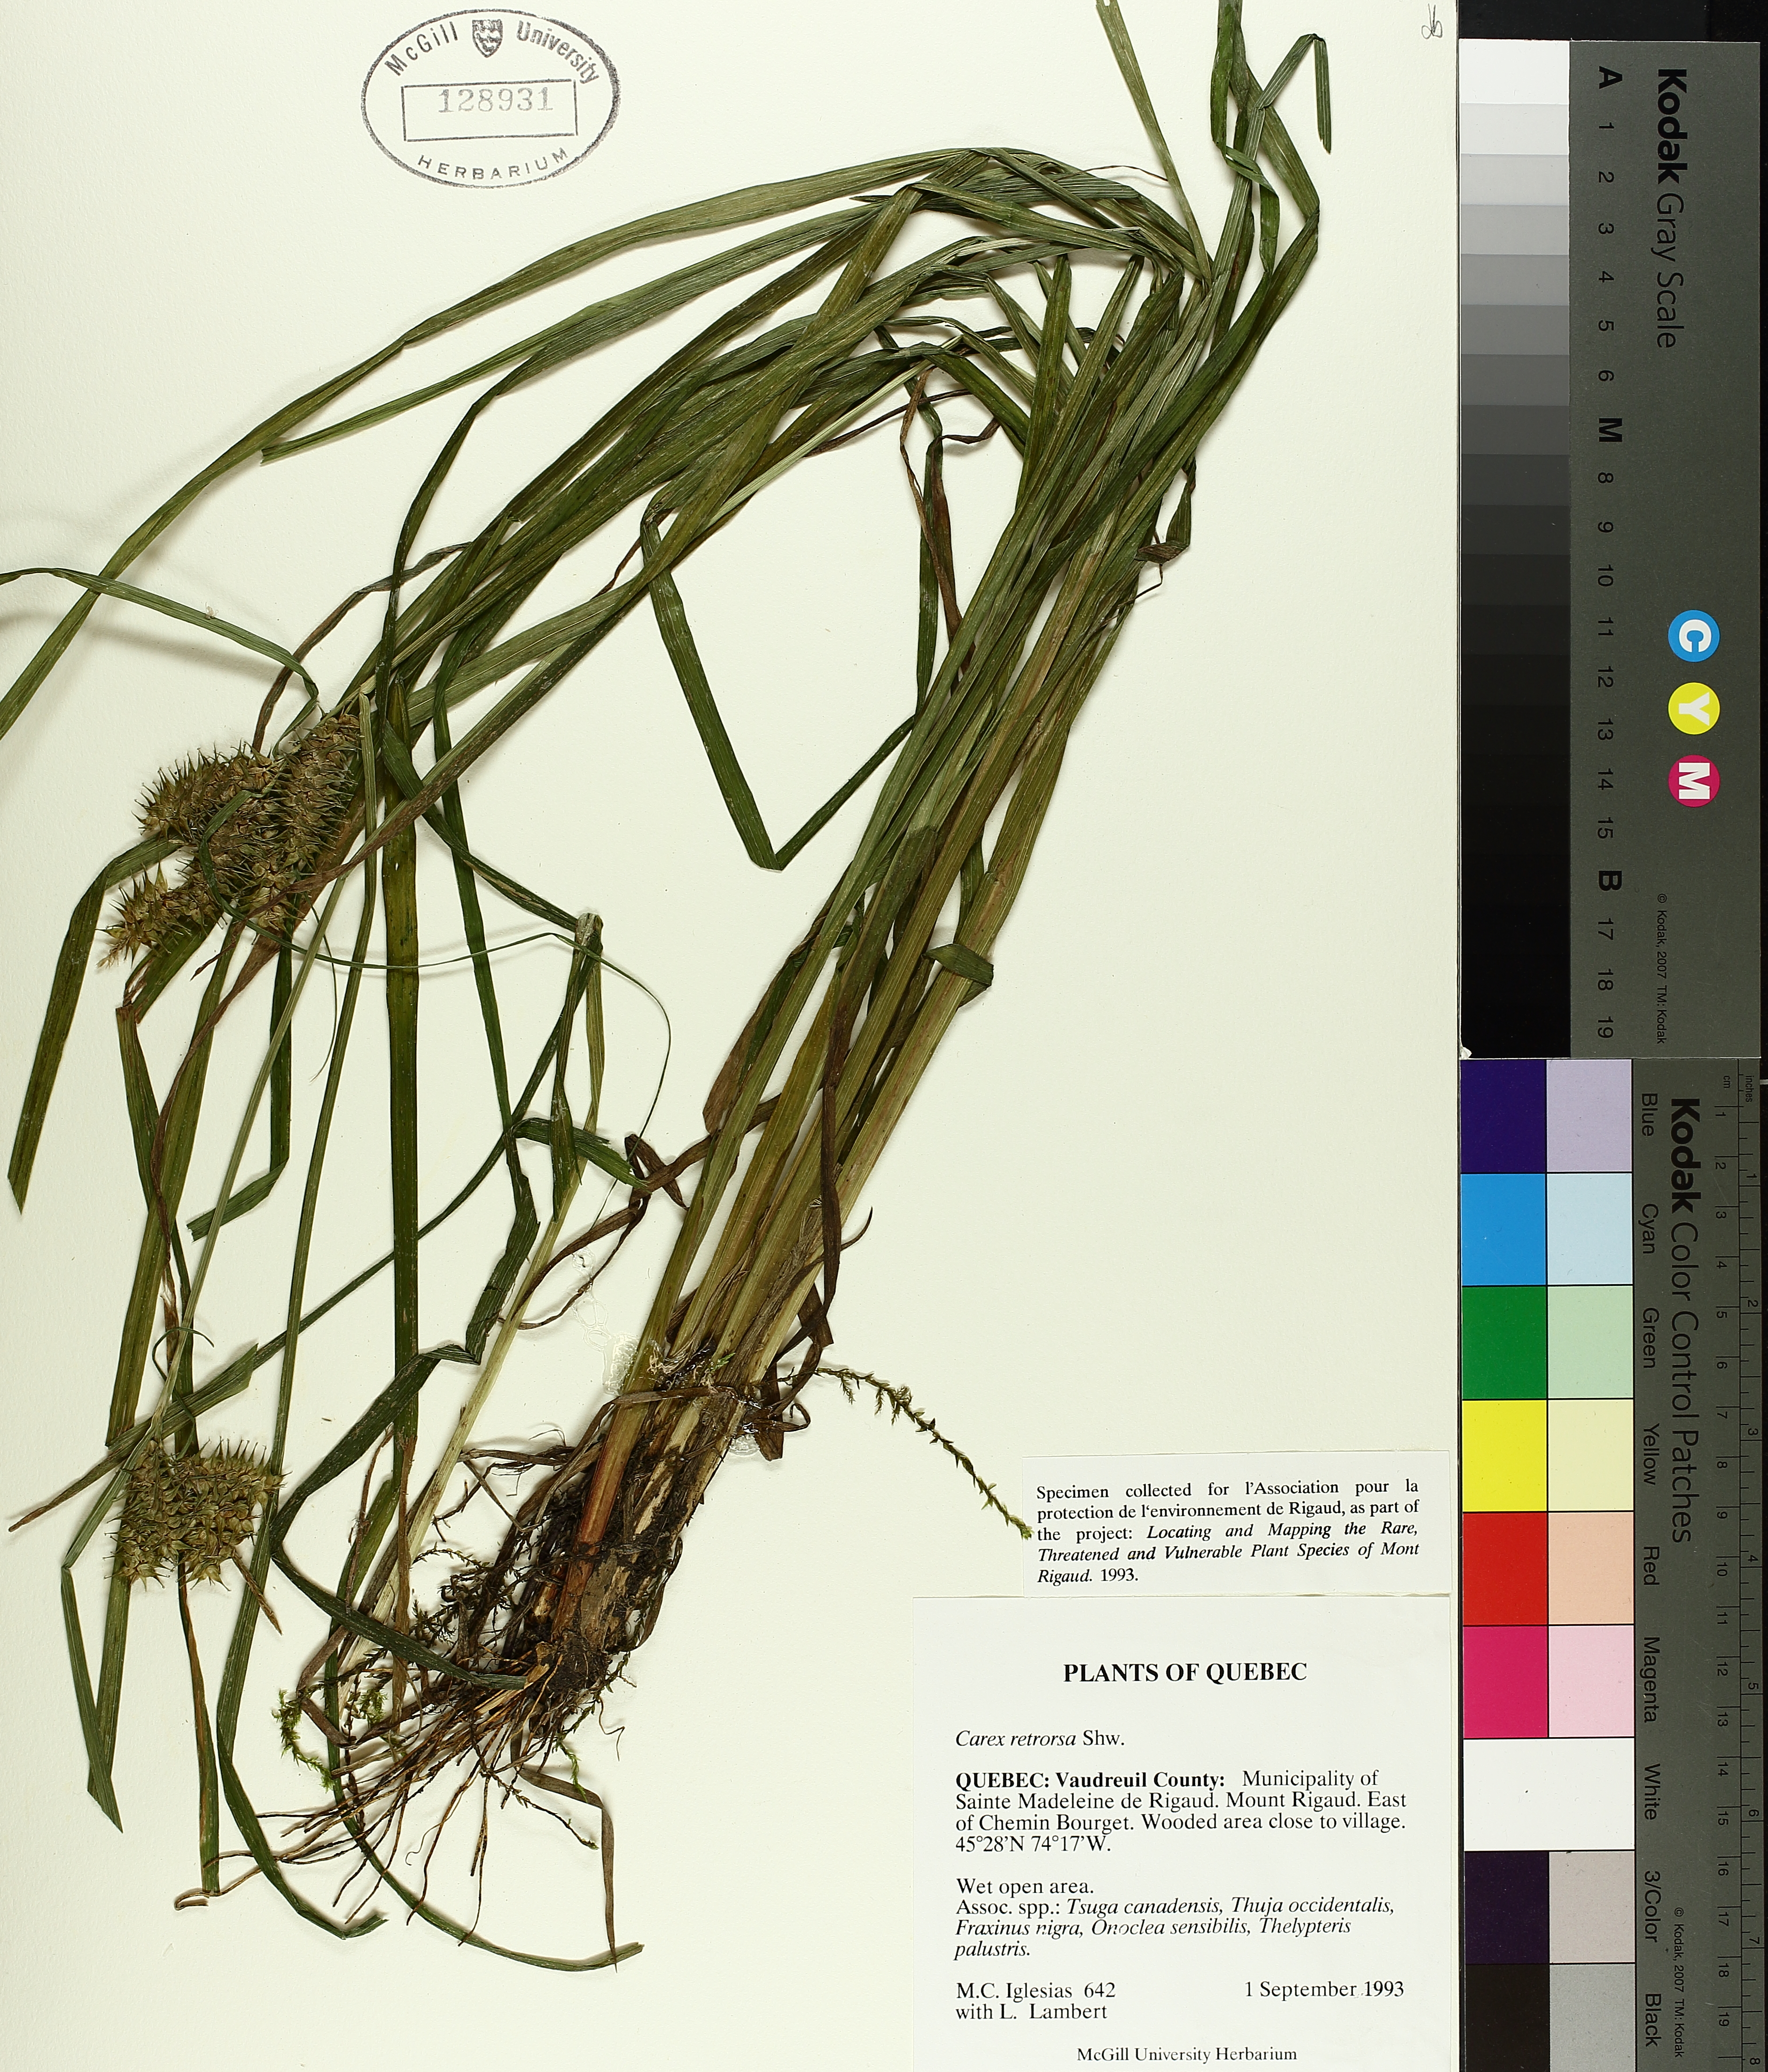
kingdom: Plantae
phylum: Tracheophyta
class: Liliopsida
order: Poales
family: Cyperaceae
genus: Carex
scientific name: Carex retrorsa
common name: Knot-sheath sedge
